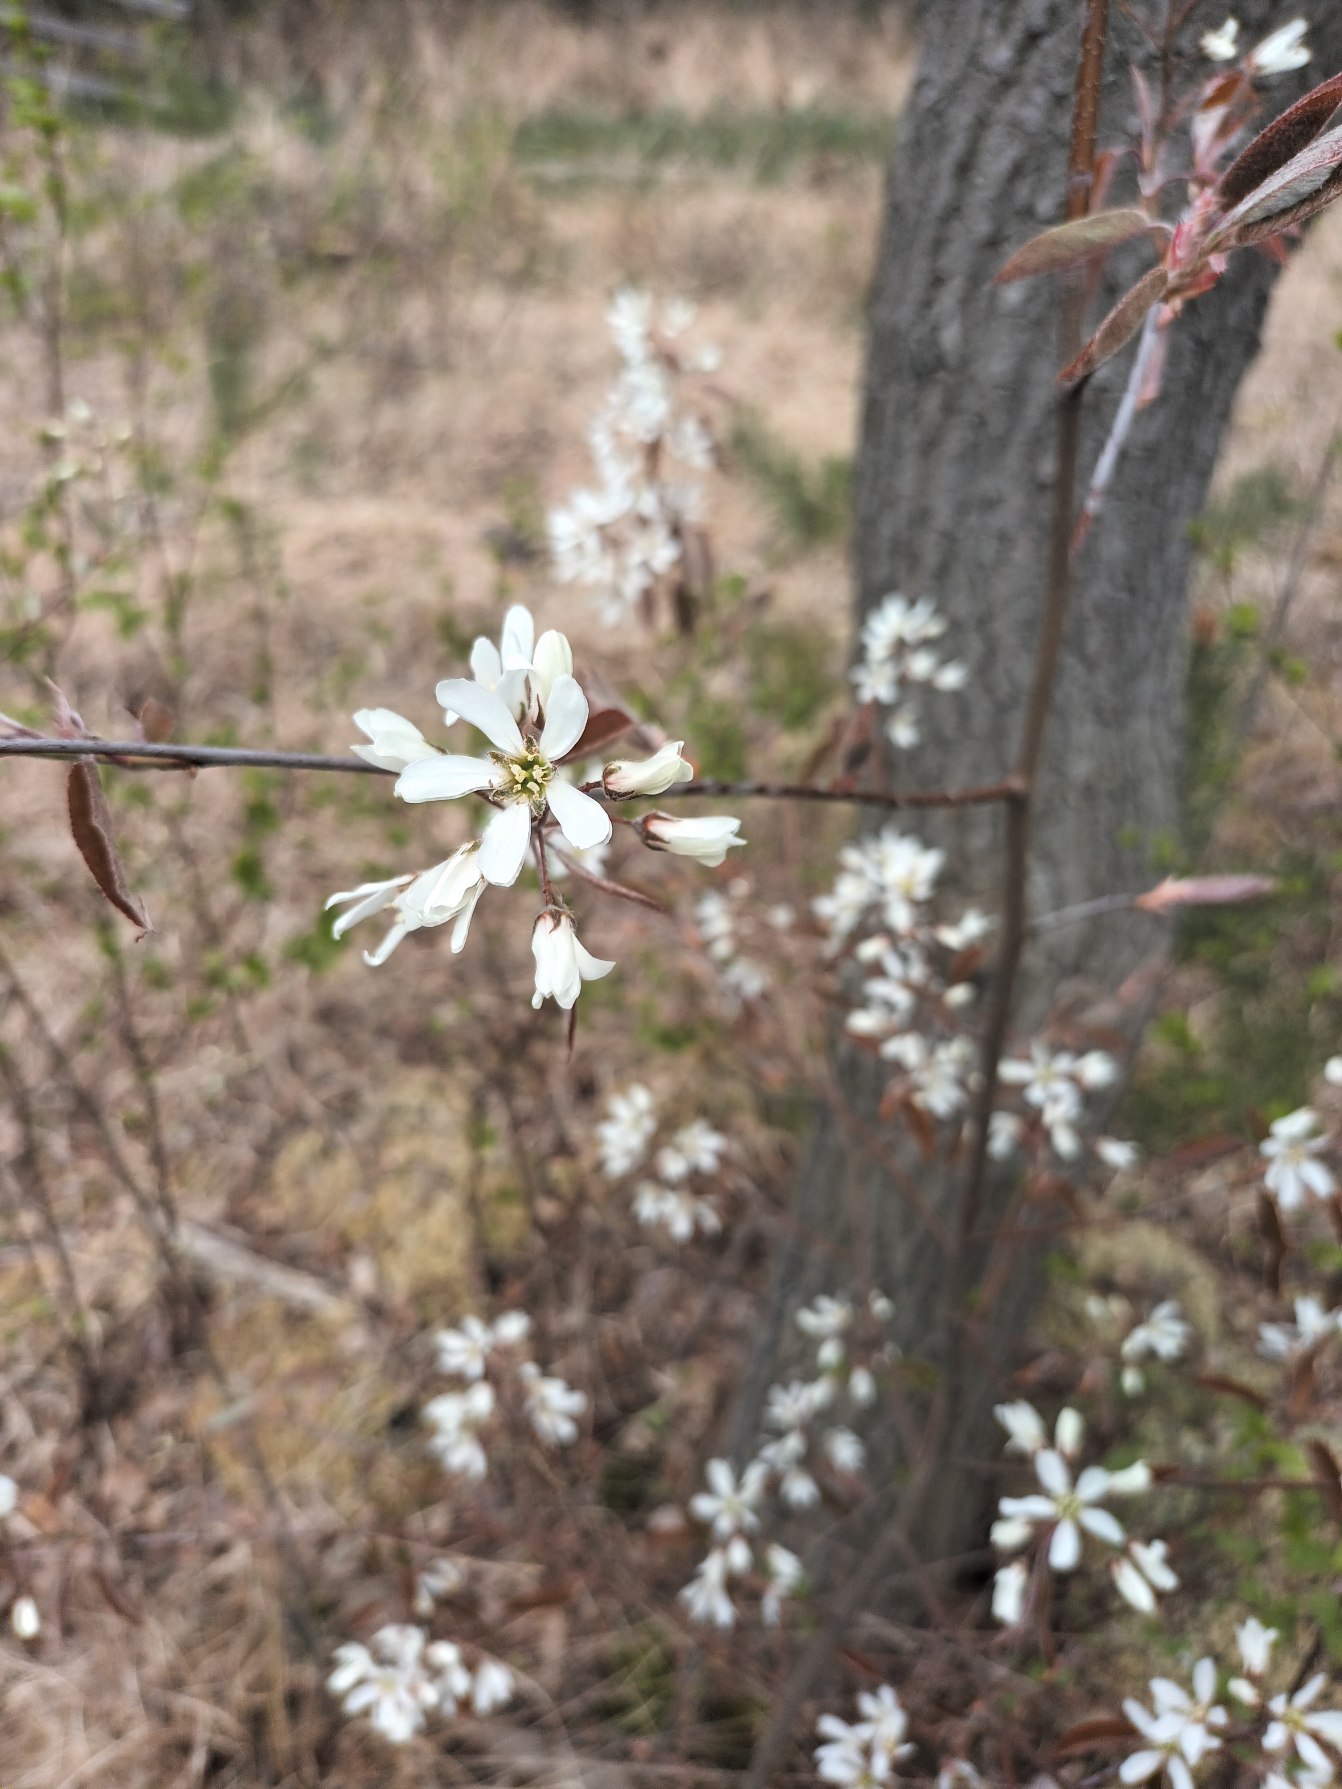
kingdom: Plantae
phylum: Tracheophyta
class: Magnoliopsida
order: Rosales
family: Rosaceae
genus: Amelanchier
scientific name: Amelanchier lamarckii
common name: Bærmispel
